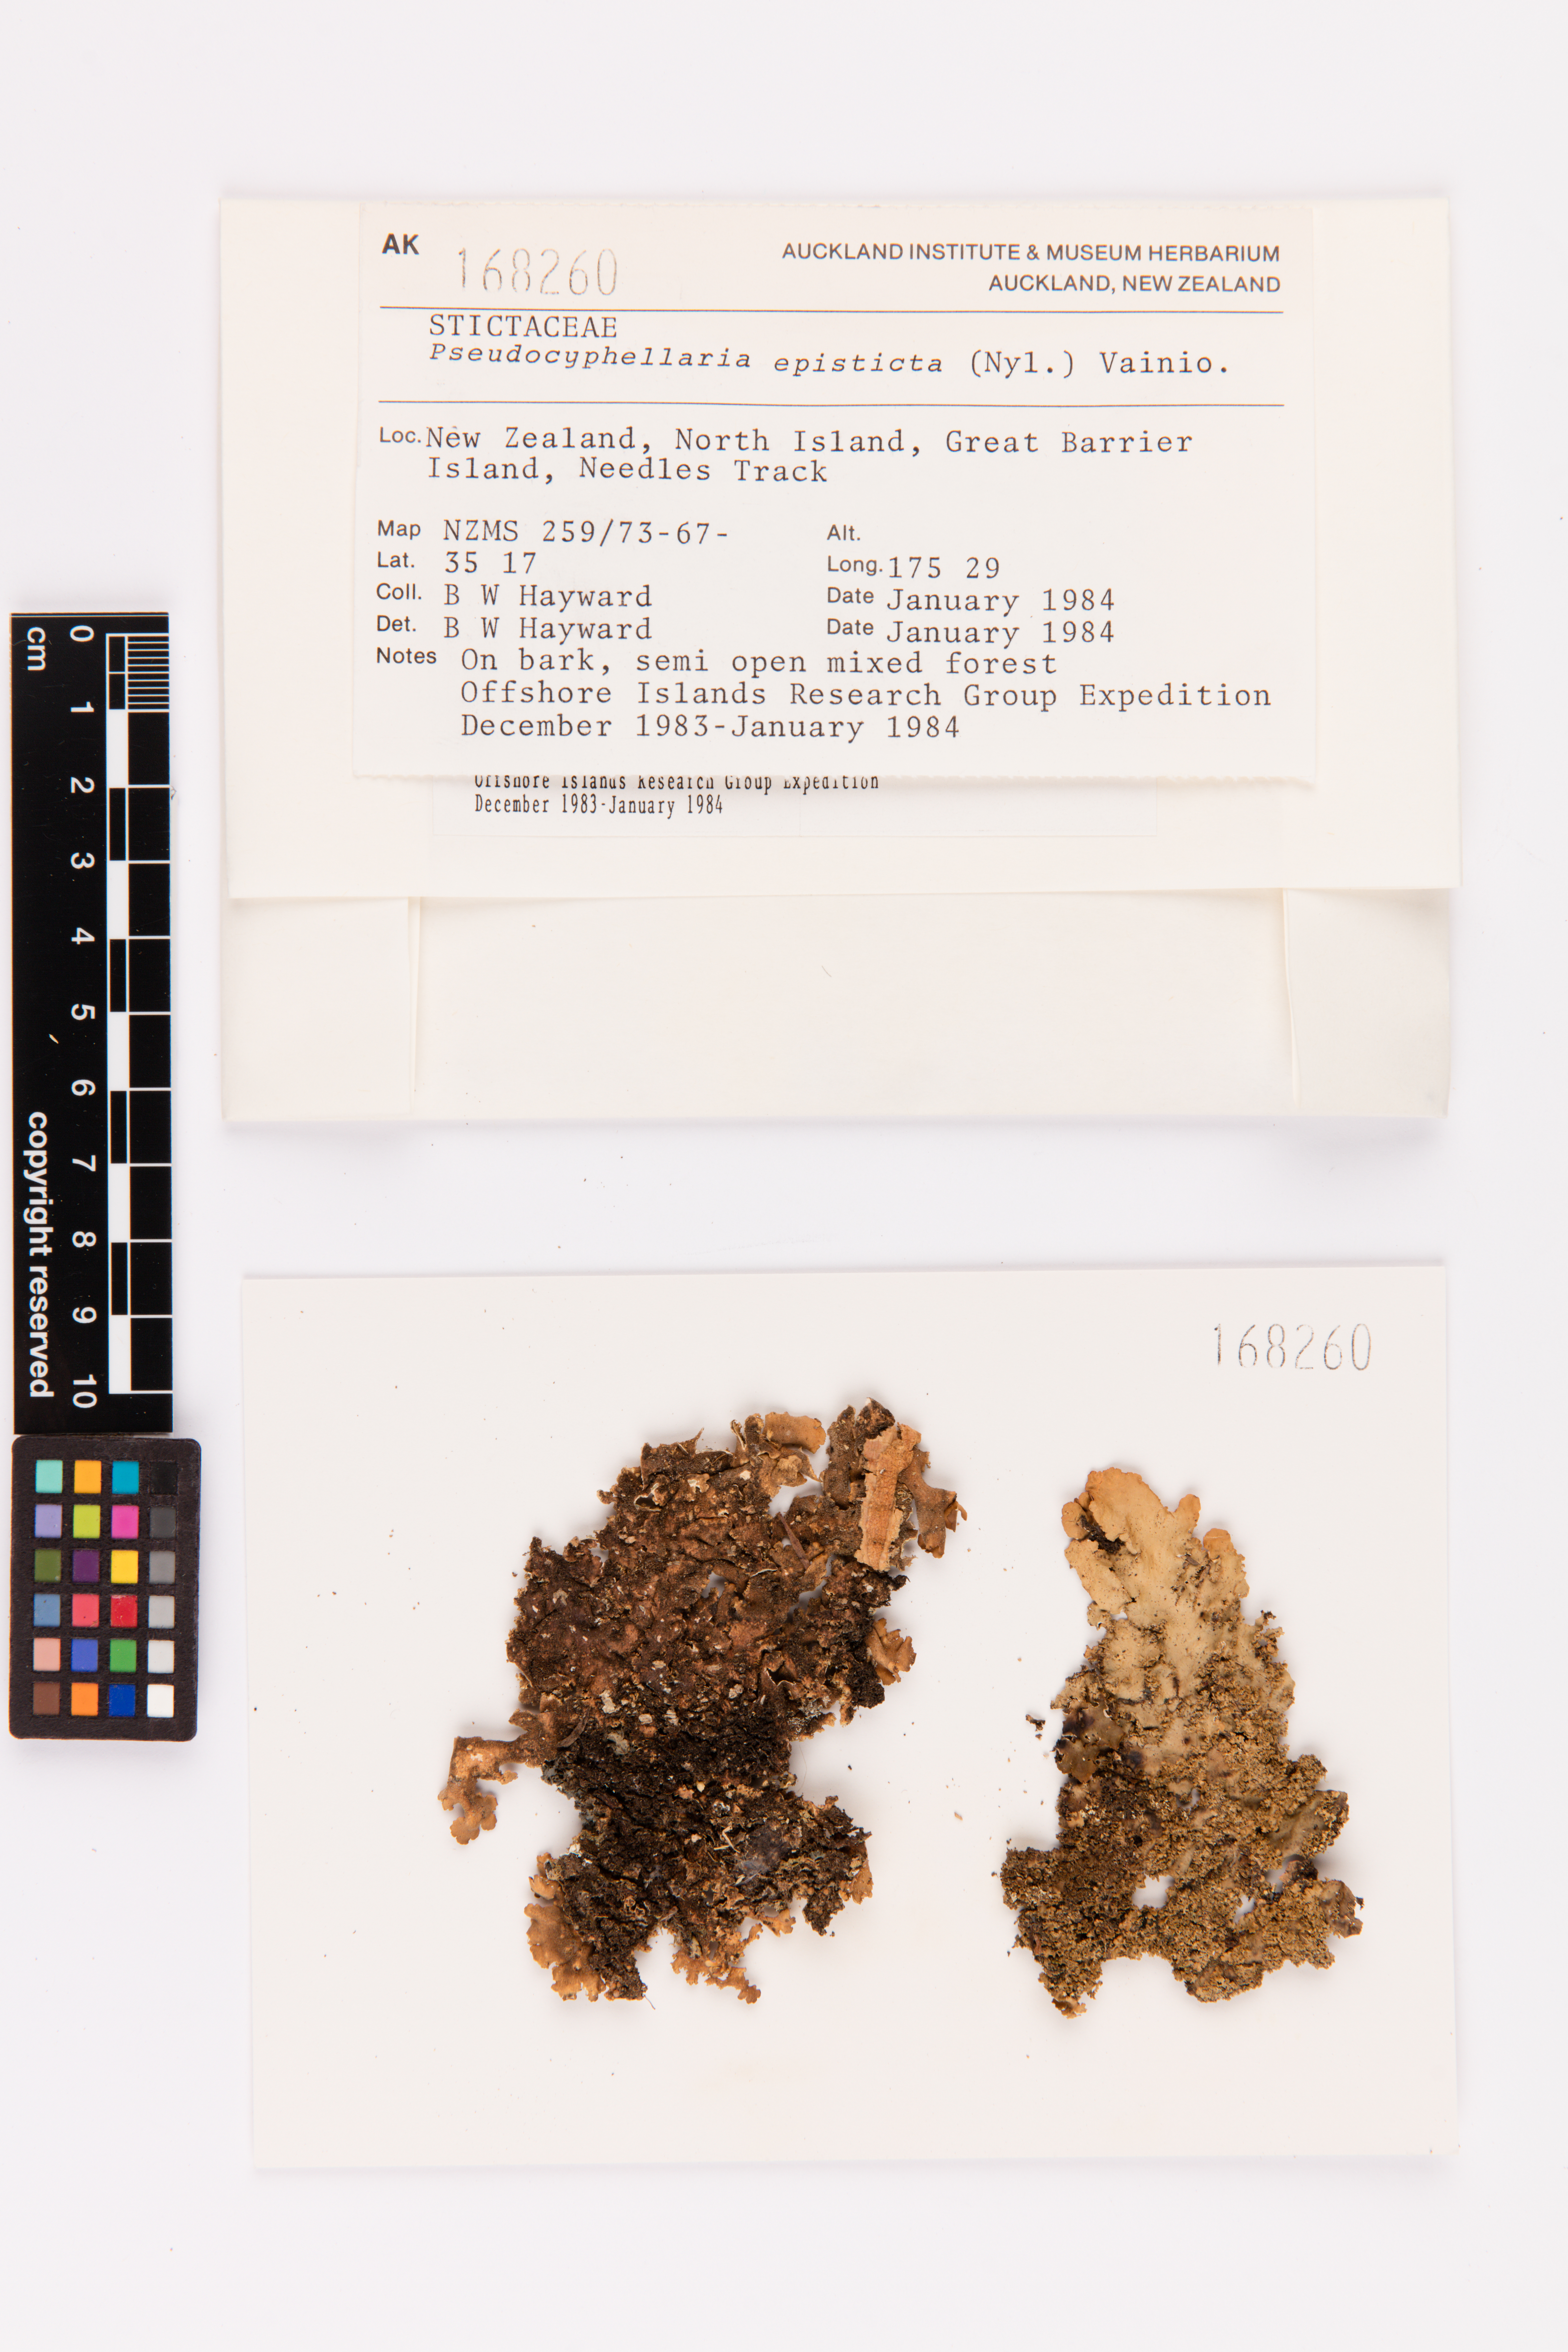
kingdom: Fungi
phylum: Ascomycota
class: Lecanoromycetes
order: Peltigerales
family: Lobariaceae
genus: Pseudocyphellaria
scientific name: Pseudocyphellaria episticta
